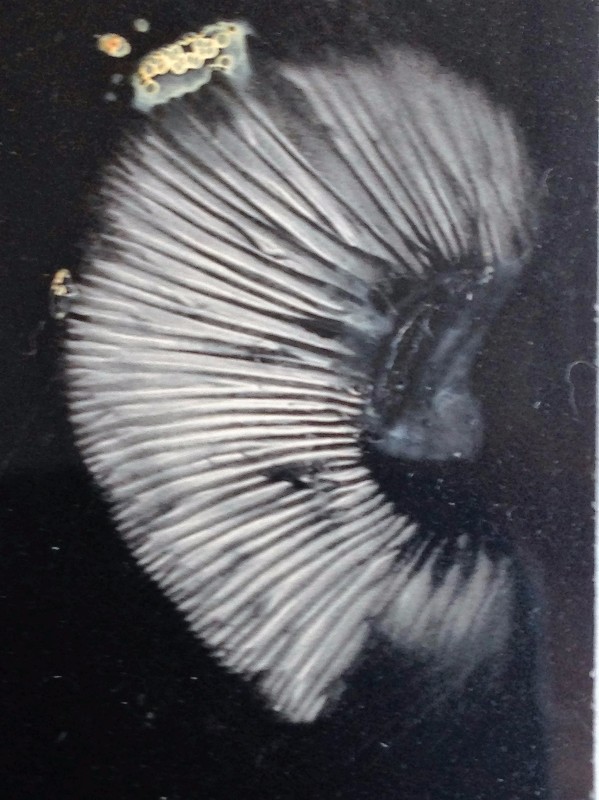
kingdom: Fungi
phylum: Basidiomycota
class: Agaricomycetes
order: Russulales
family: Russulaceae
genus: Lactarius
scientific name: Lactarius hepaticus
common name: leverbrun mælkehat
